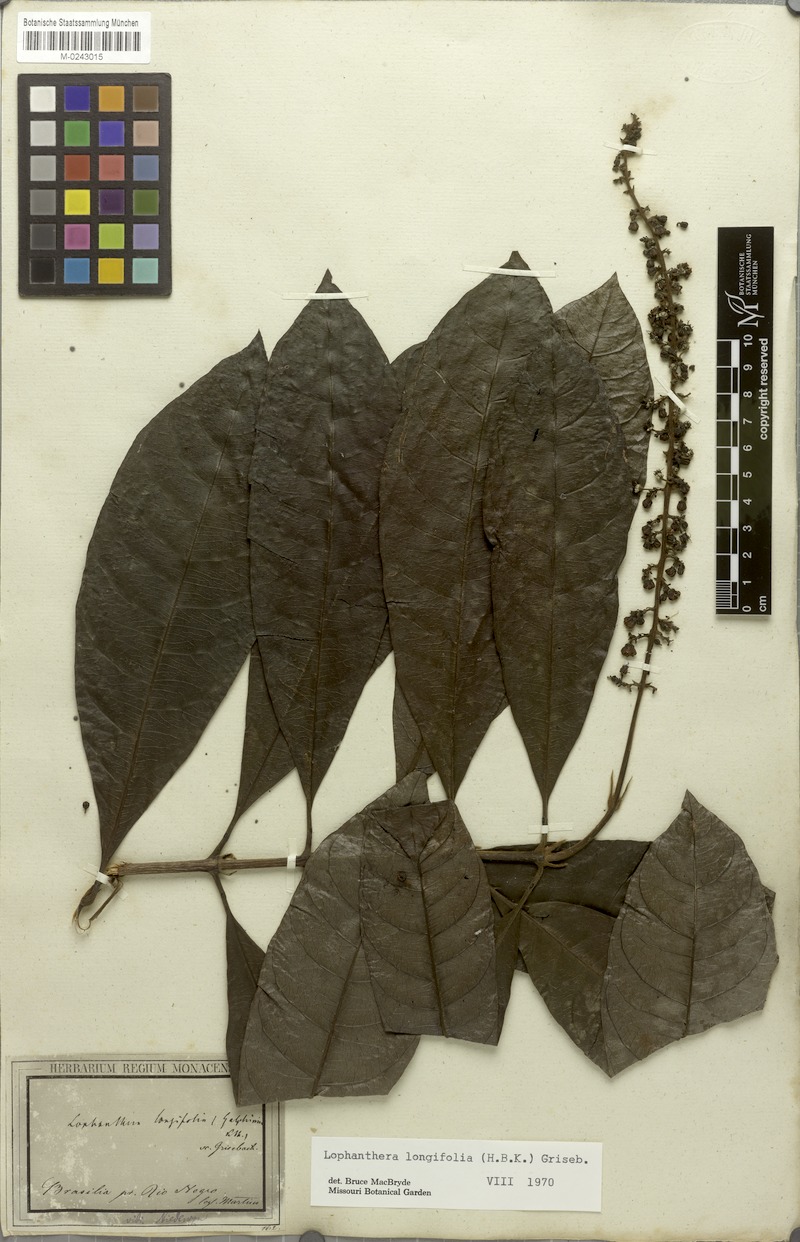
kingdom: Plantae
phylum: Tracheophyta
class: Magnoliopsida
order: Malpighiales
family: Malpighiaceae
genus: Lophanthera
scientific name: Lophanthera longifolia
